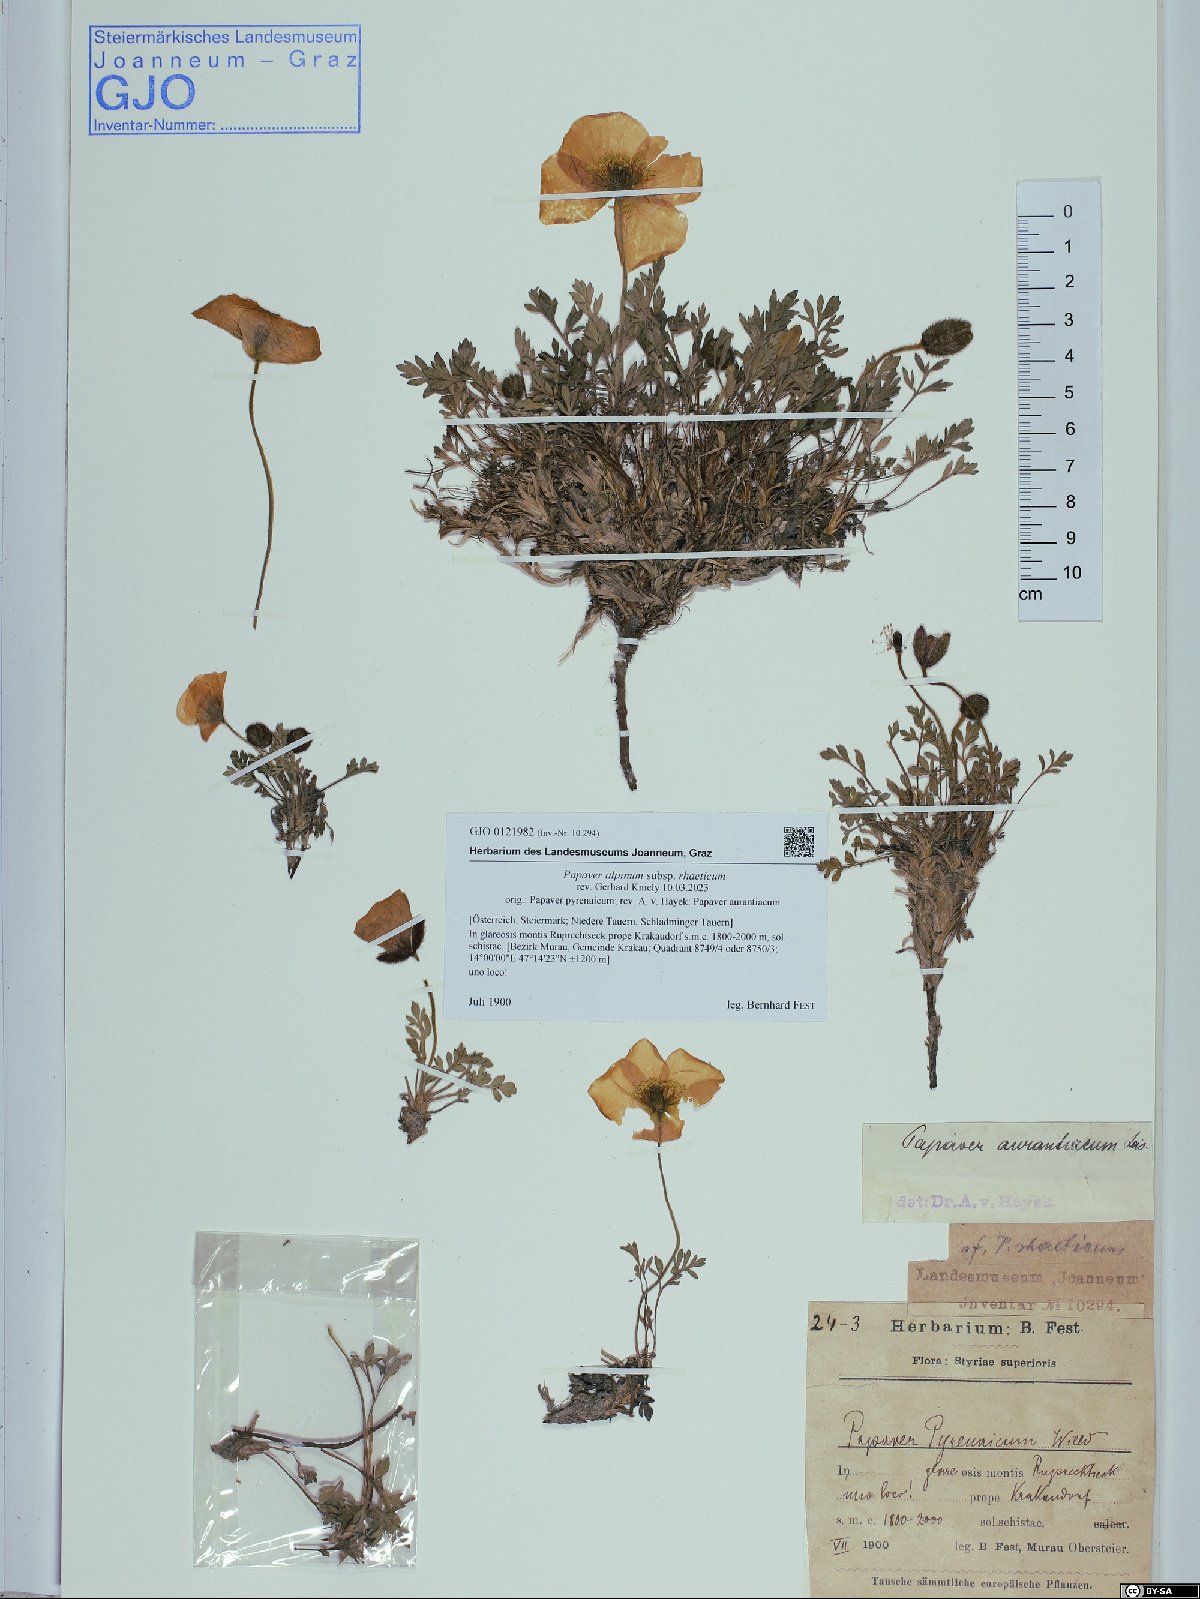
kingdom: Plantae
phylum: Tracheophyta
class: Magnoliopsida
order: Ranunculales
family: Papaveraceae
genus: Papaver
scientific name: Papaver alpinum
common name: Austrian poppy
